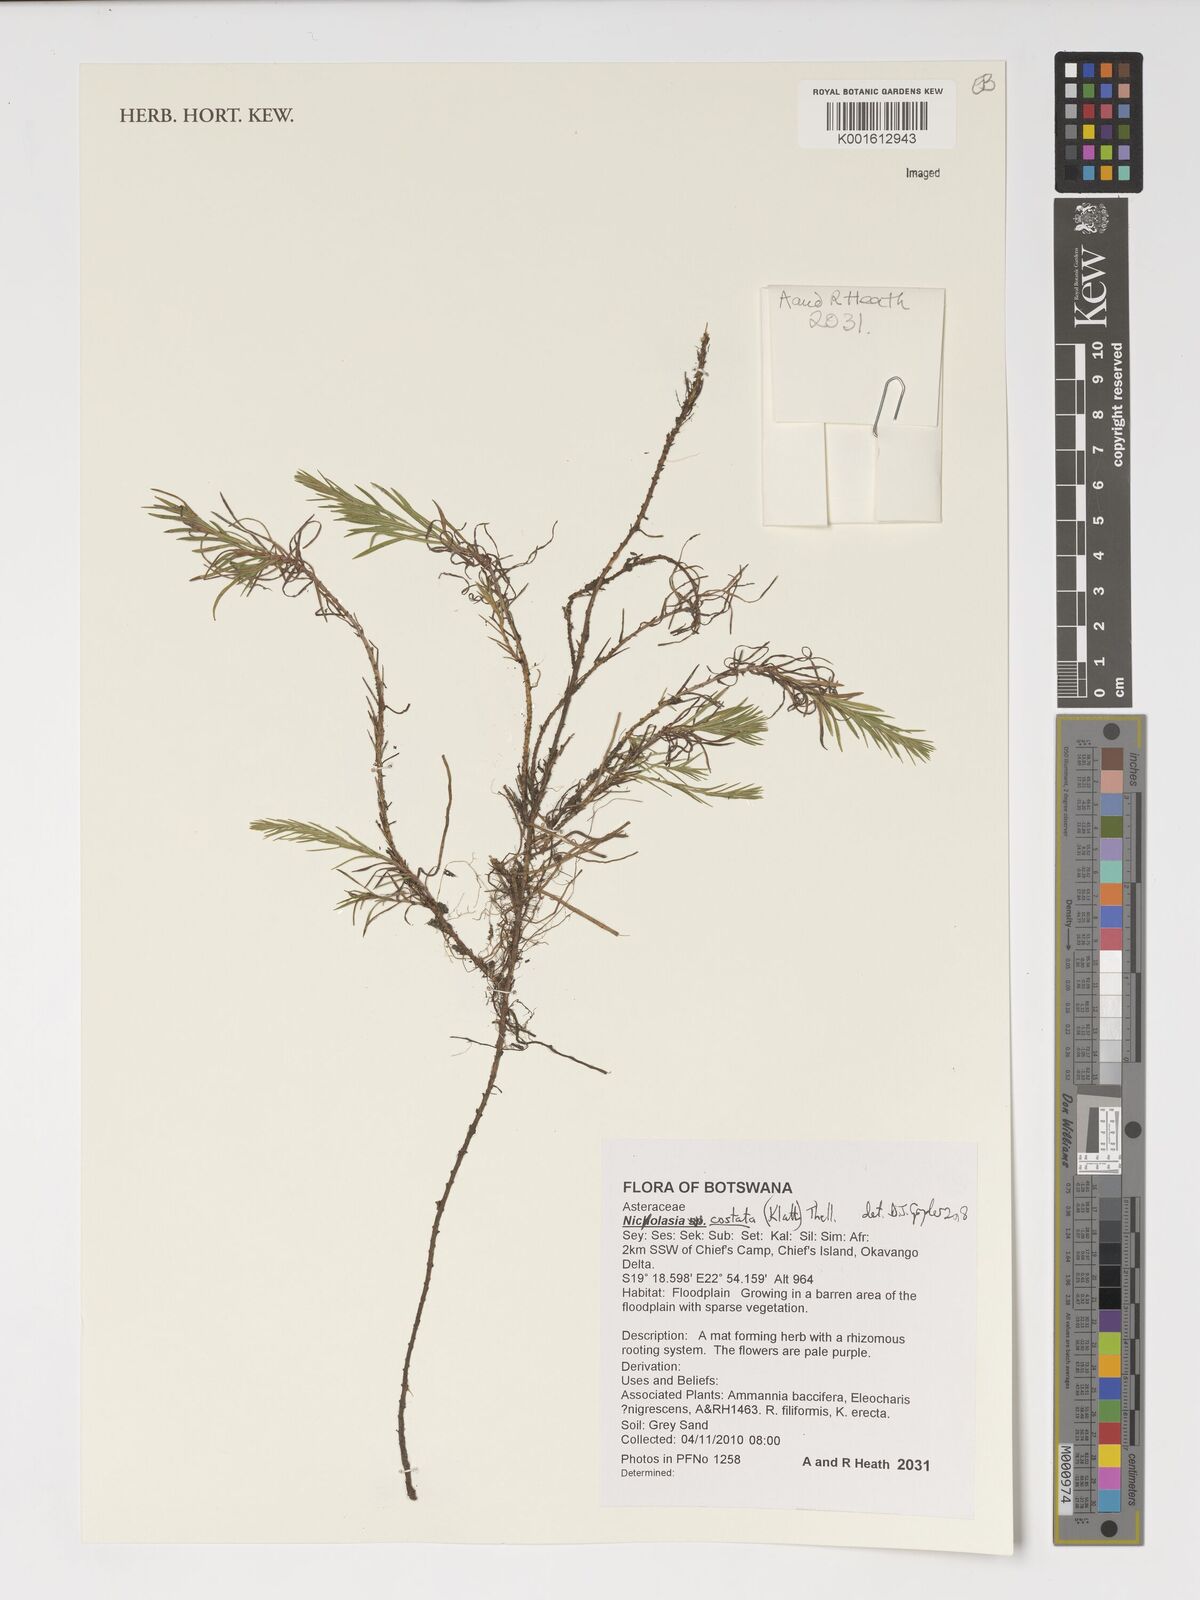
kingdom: Plantae
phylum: Tracheophyta
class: Magnoliopsida
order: Asterales
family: Asteraceae
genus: Nicolasia
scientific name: Nicolasia costata
